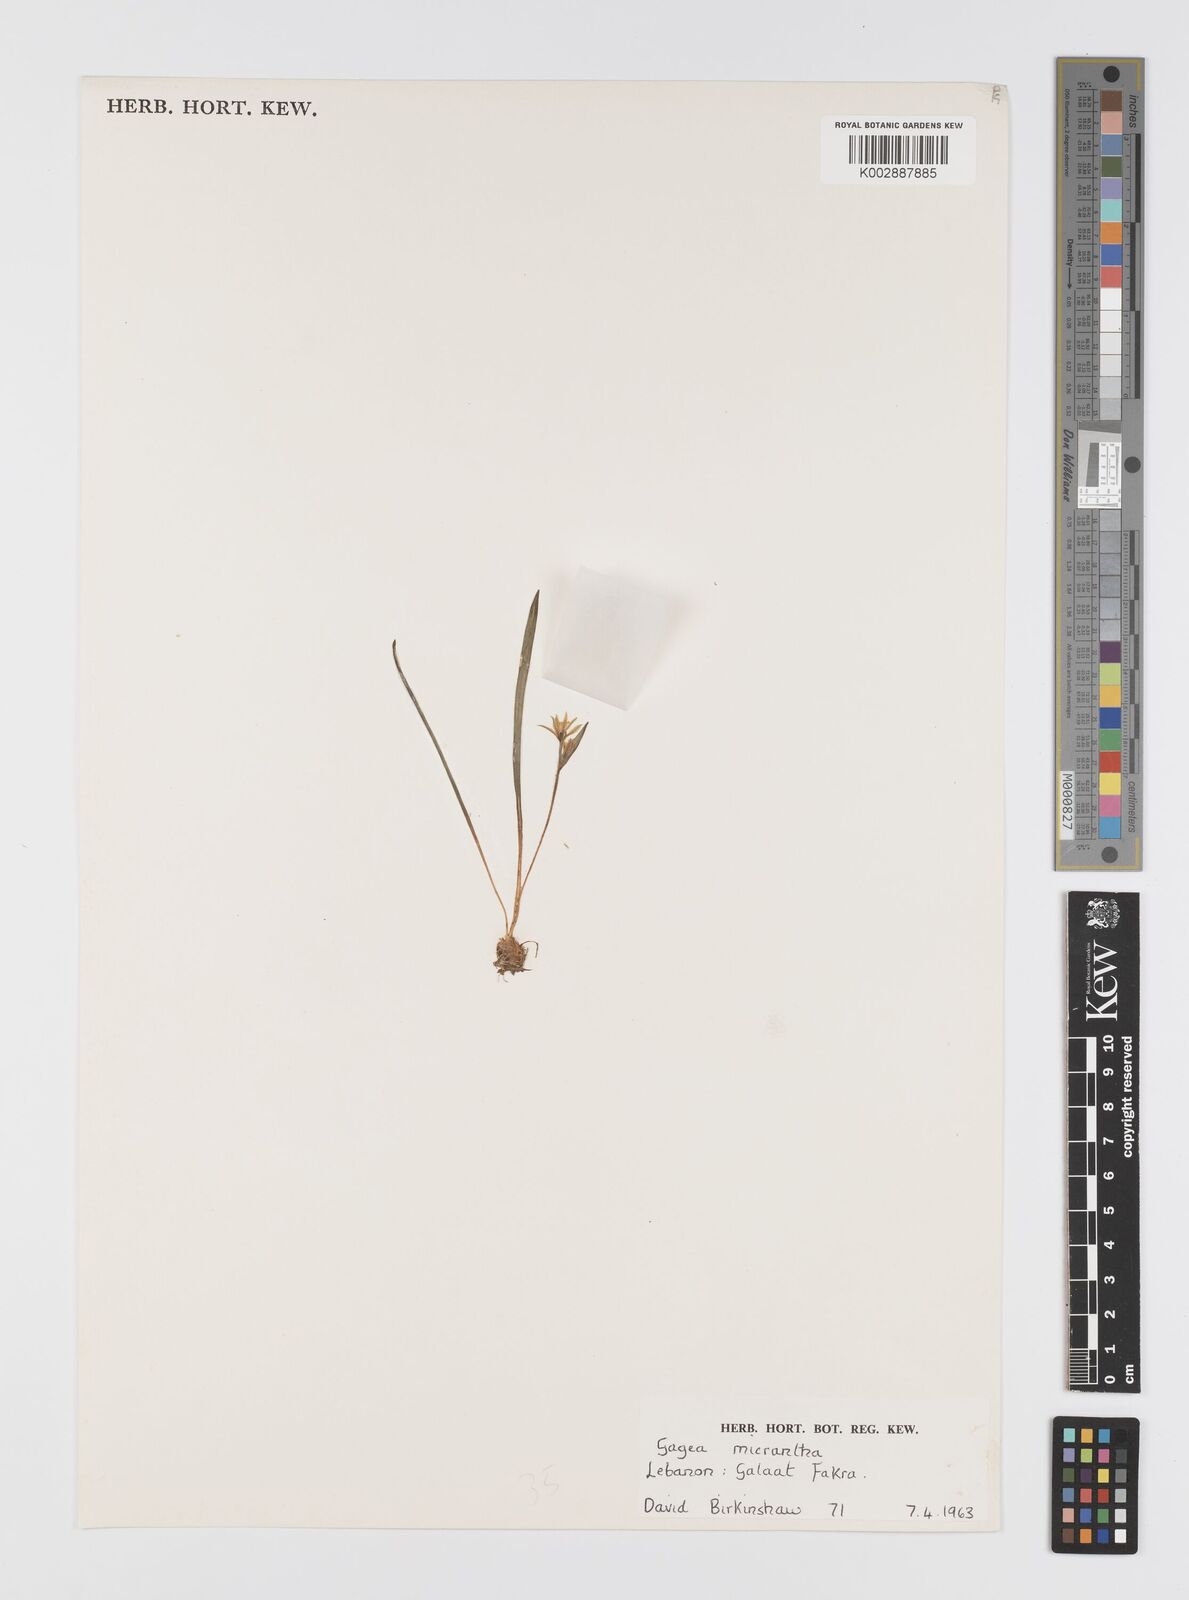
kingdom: Plantae
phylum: Tracheophyta
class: Liliopsida
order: Liliales
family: Liliaceae
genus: Gagea
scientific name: Gagea micrantha
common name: Small-flowered gagea
